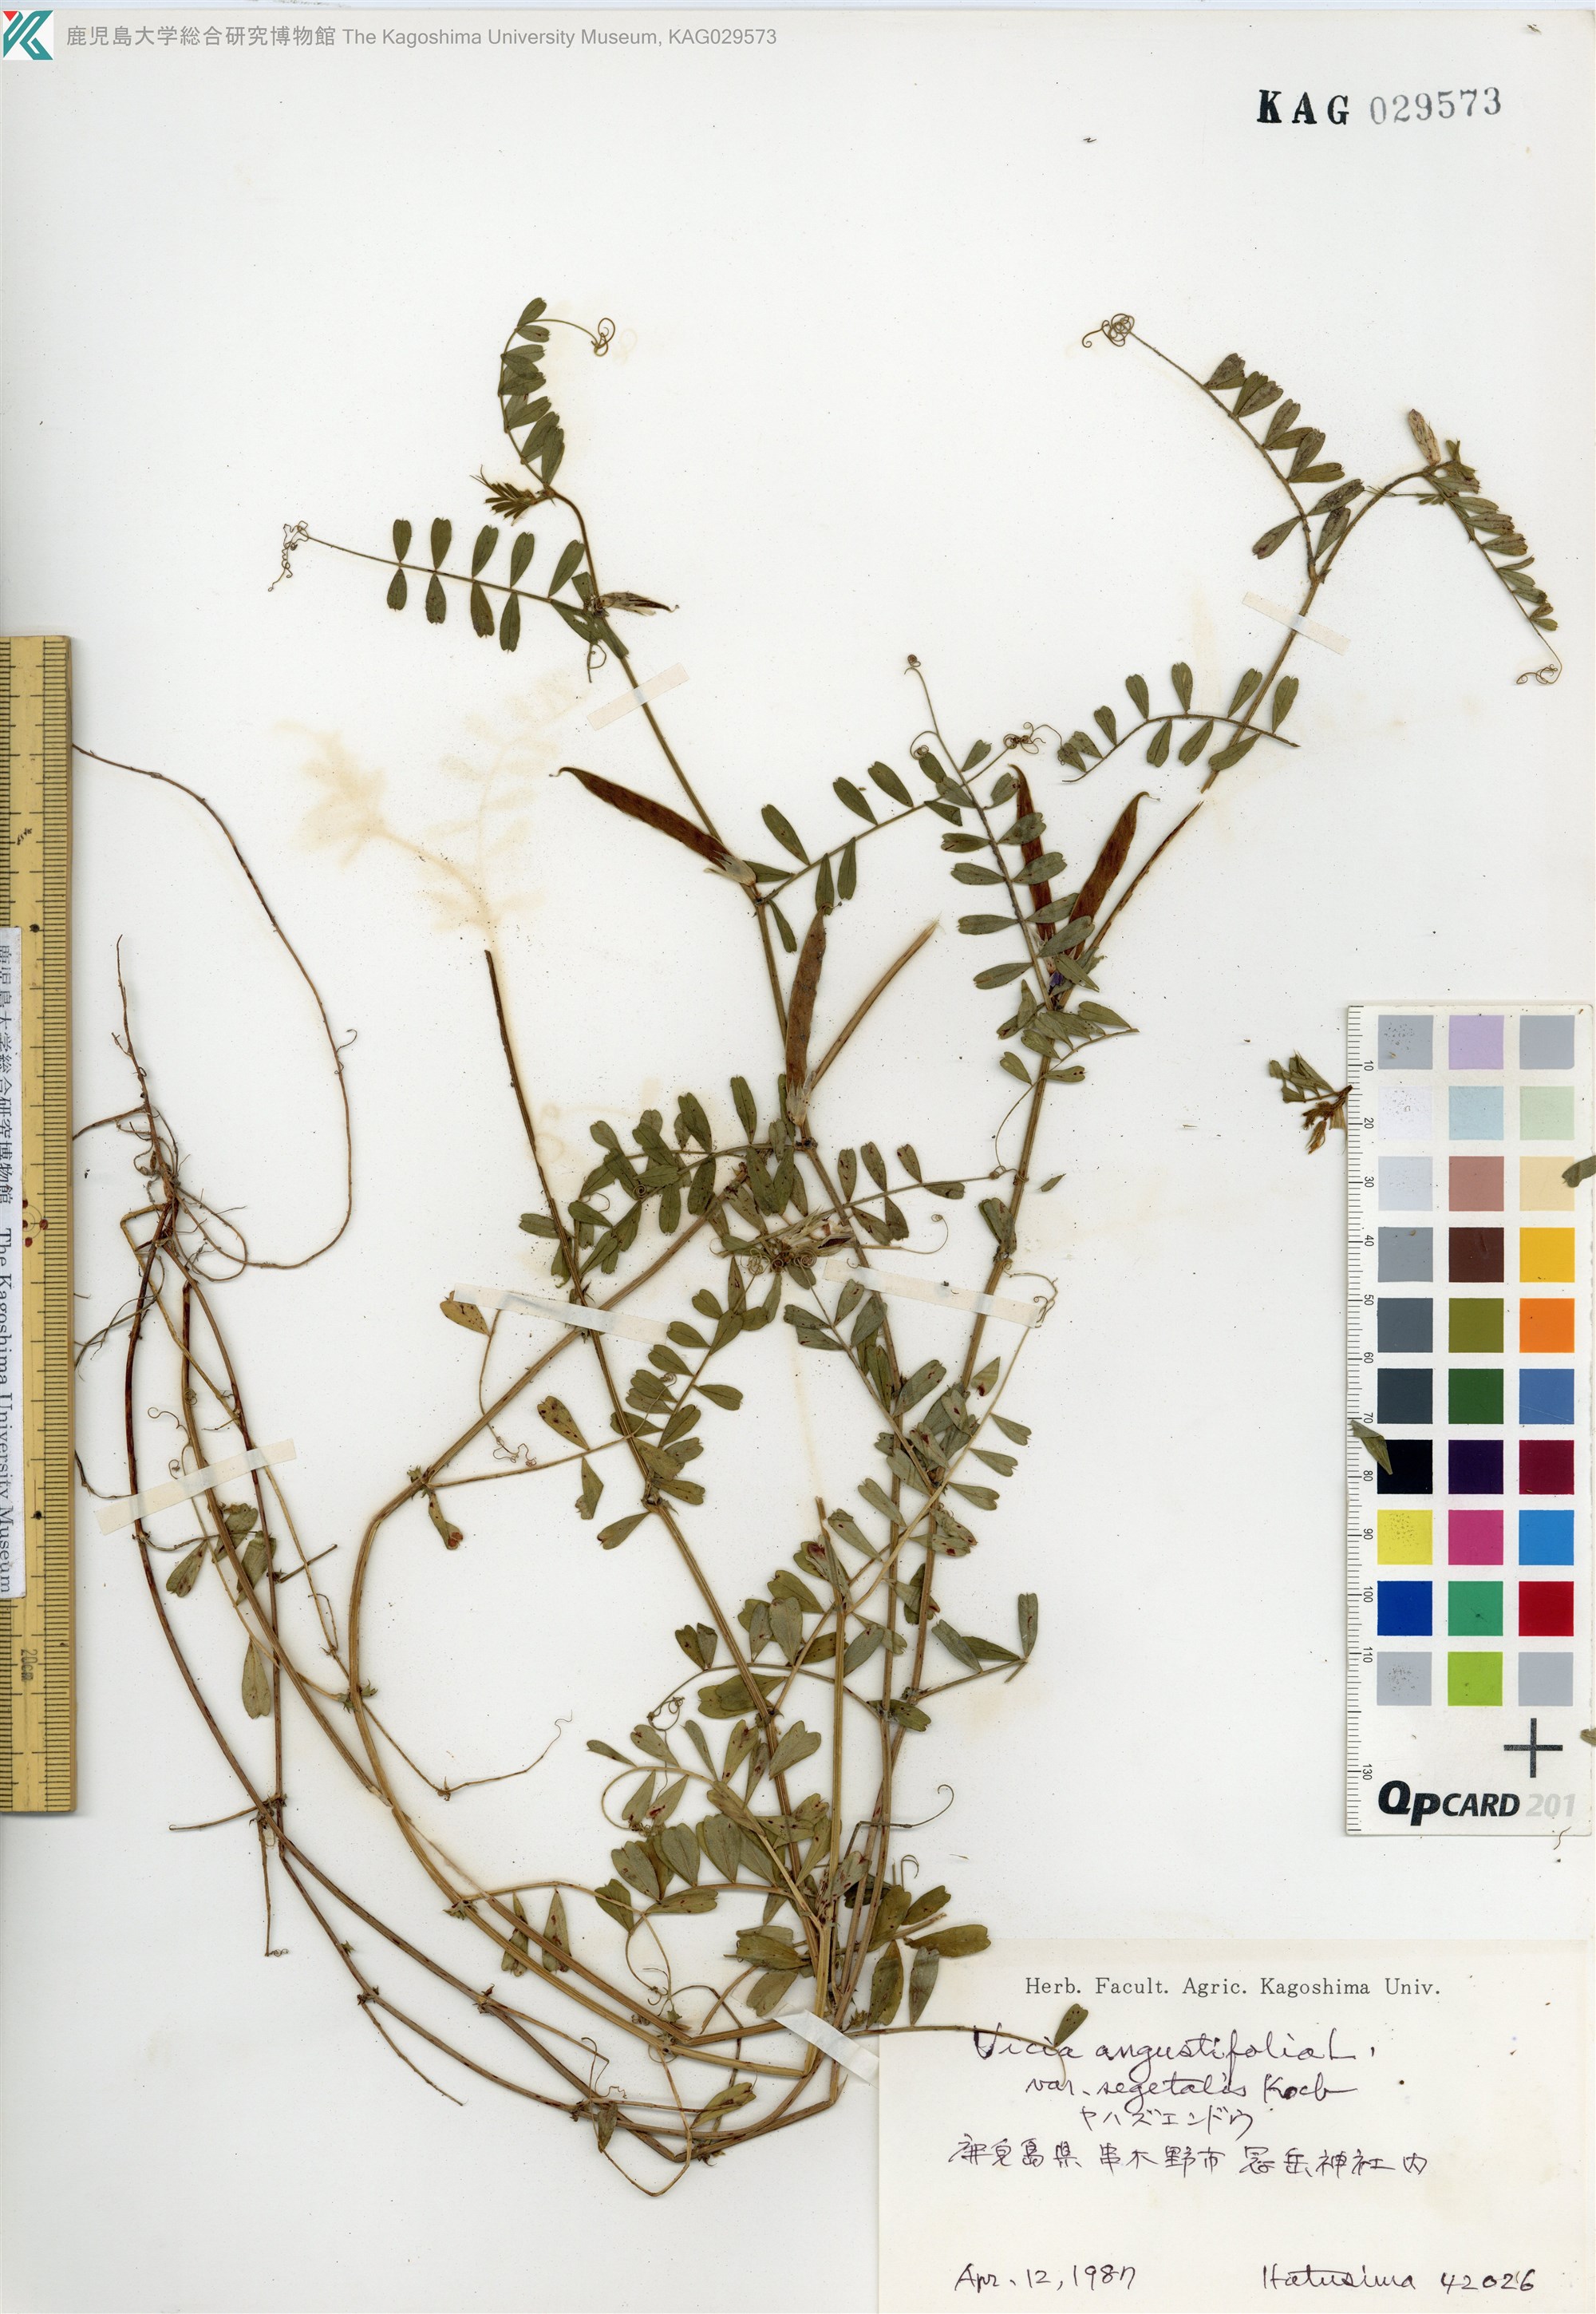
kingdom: Plantae
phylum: Tracheophyta
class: Magnoliopsida
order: Fabales
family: Fabaceae
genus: Vicia
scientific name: Vicia sativa
